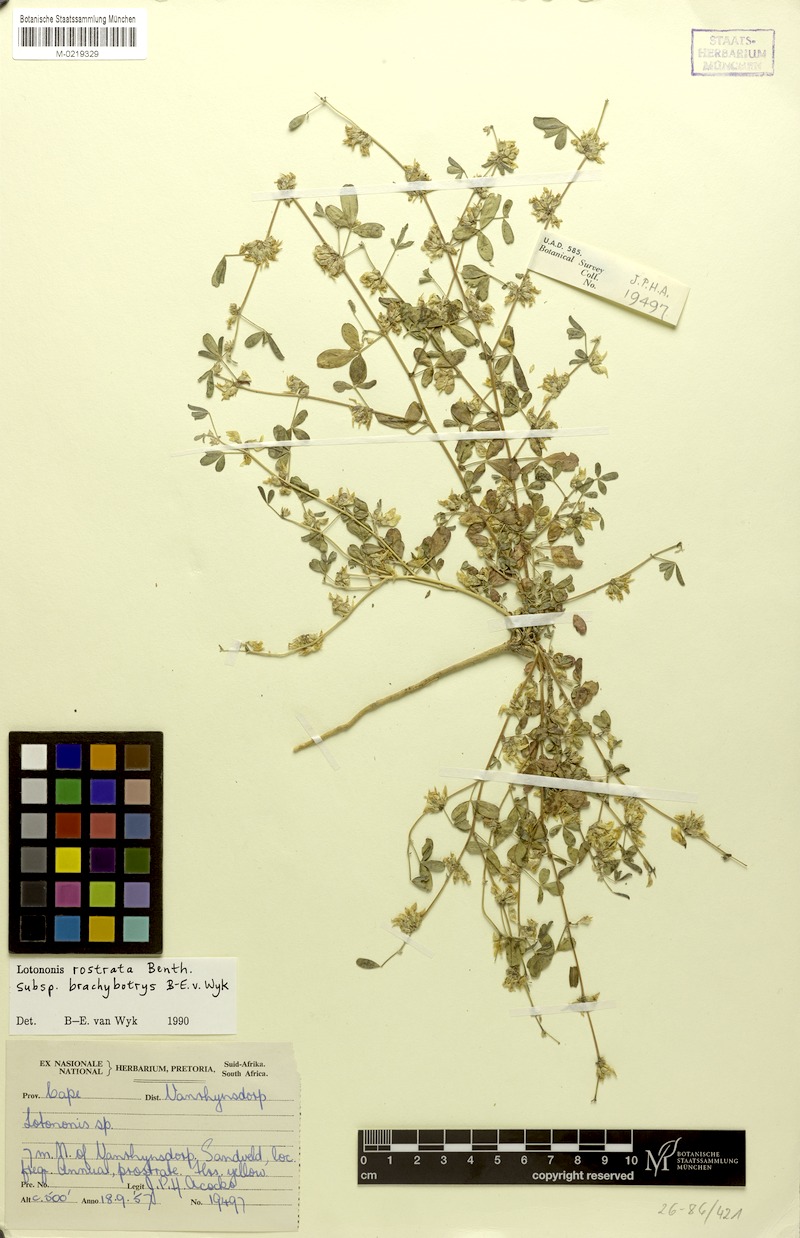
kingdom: Plantae
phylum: Tracheophyta
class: Magnoliopsida
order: Fabales
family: Fabaceae
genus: Lotononis
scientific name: Lotononis rostrata
